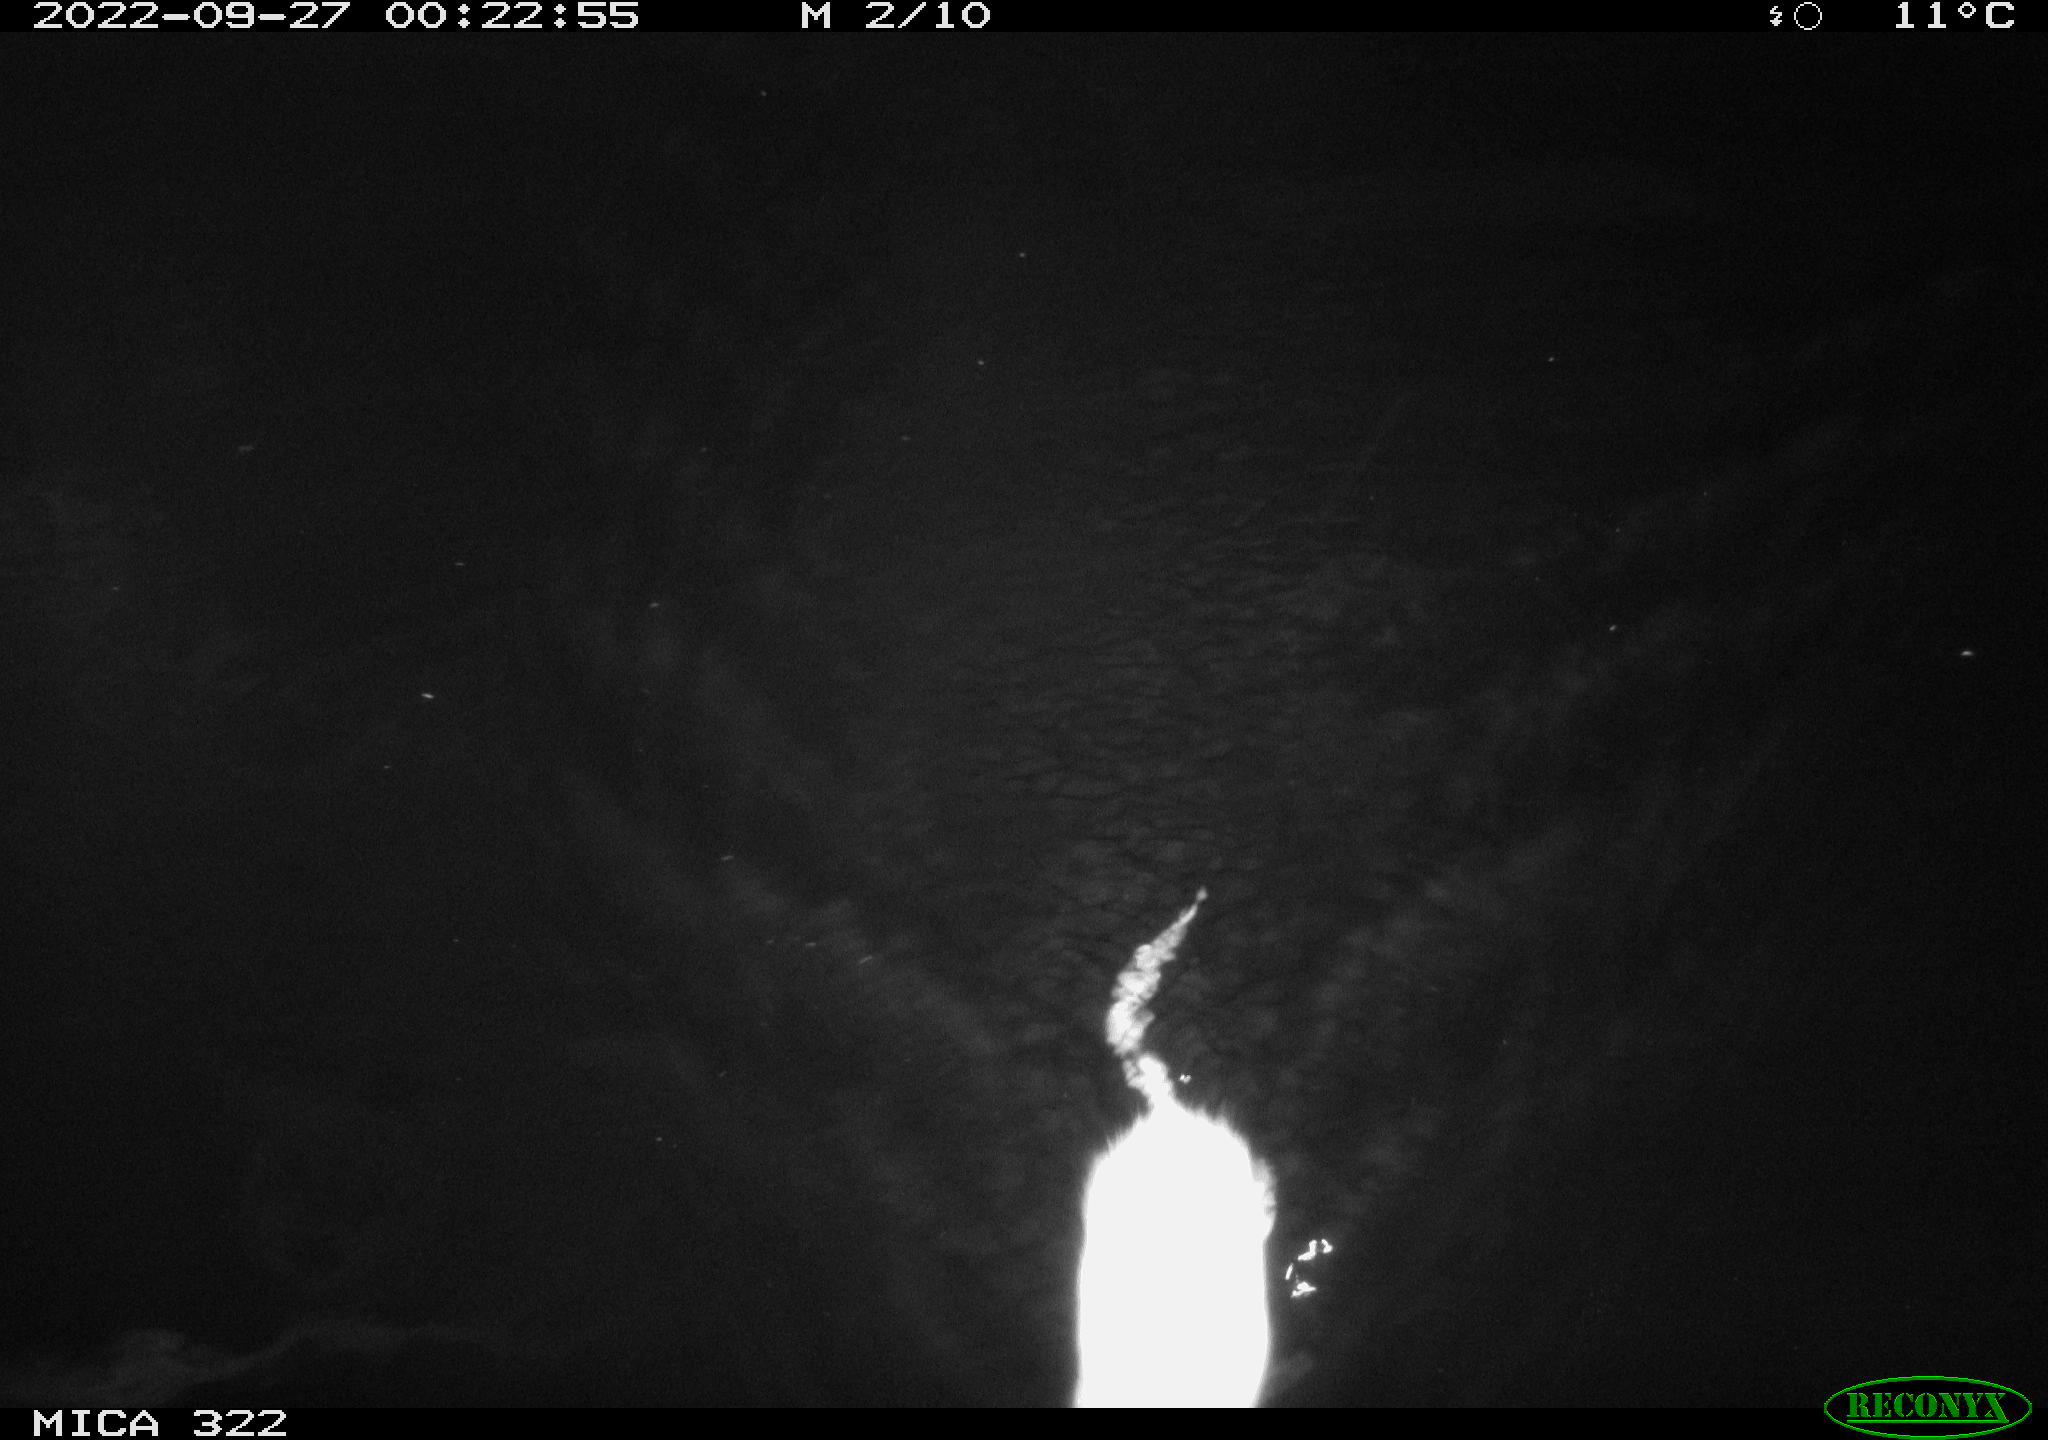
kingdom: Animalia
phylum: Chordata
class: Mammalia
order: Rodentia
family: Cricetidae
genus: Ondatra
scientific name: Ondatra zibethicus
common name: Muskrat
